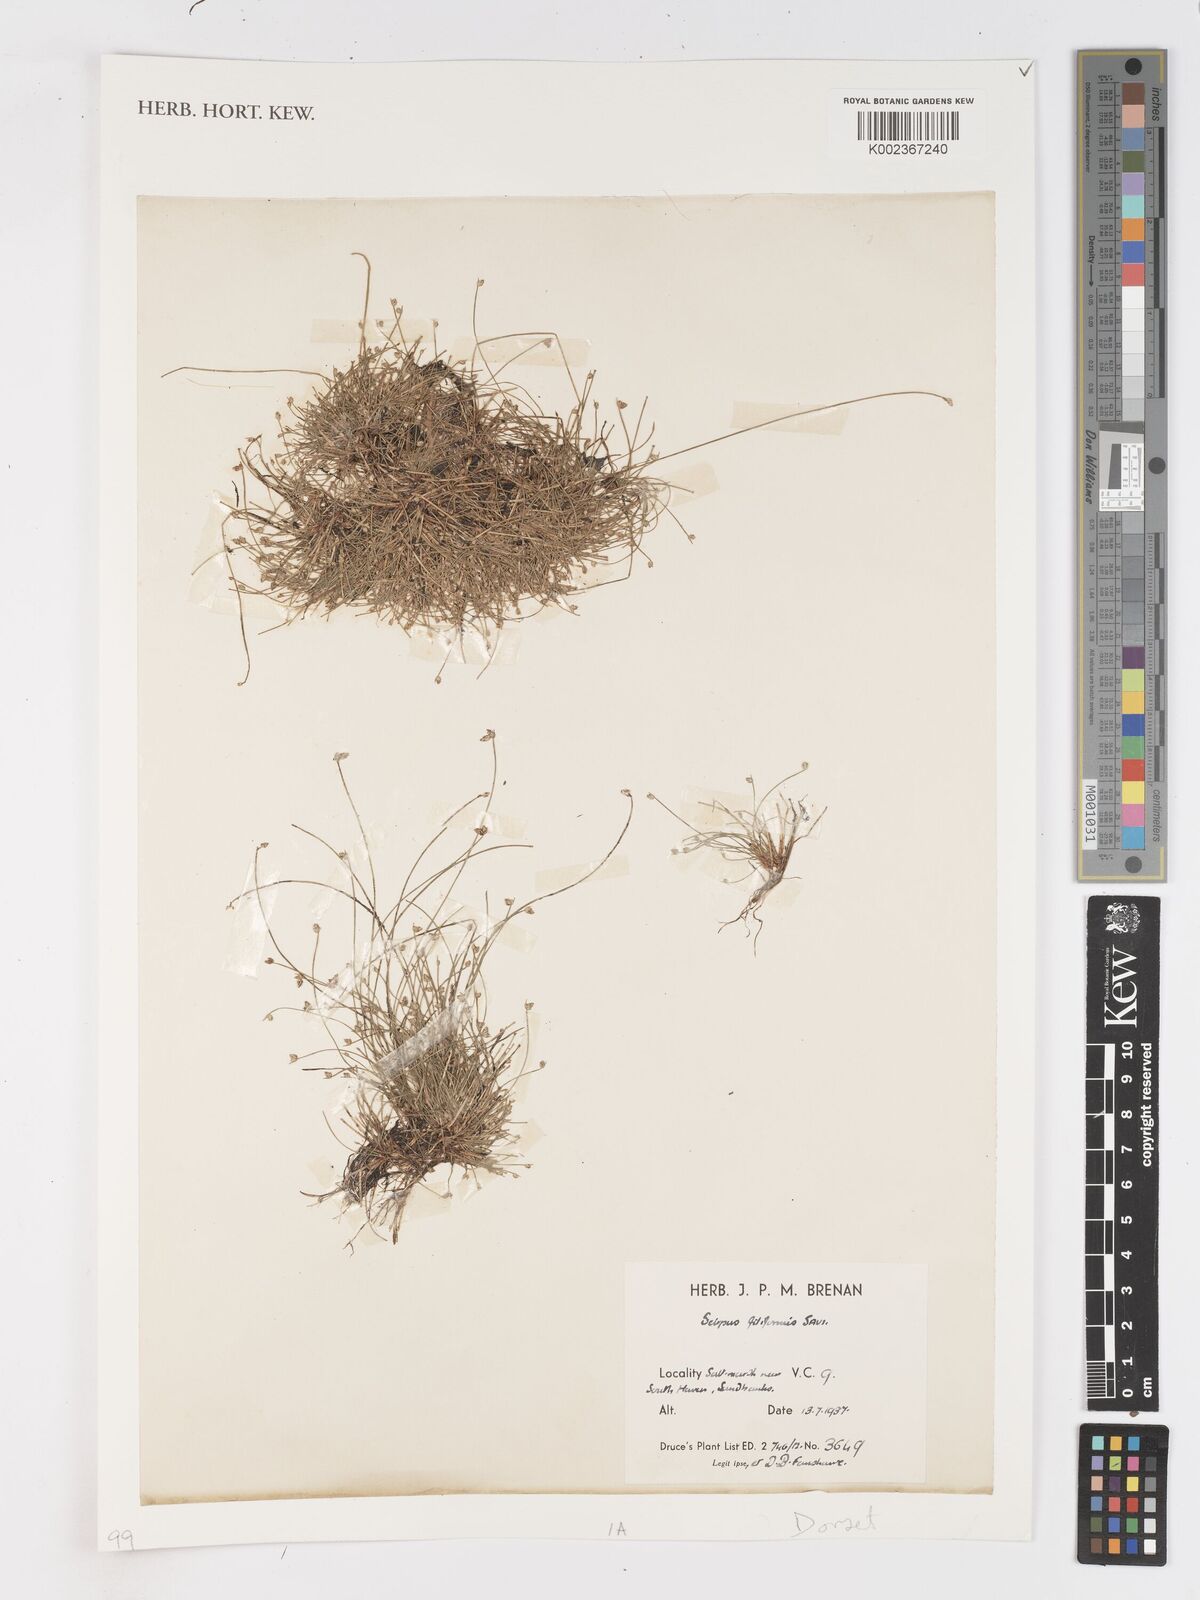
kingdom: Plantae
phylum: Tracheophyta
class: Liliopsida
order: Poales
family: Cyperaceae
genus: Isolepis
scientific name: Isolepis cernua
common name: Slender club-rush
